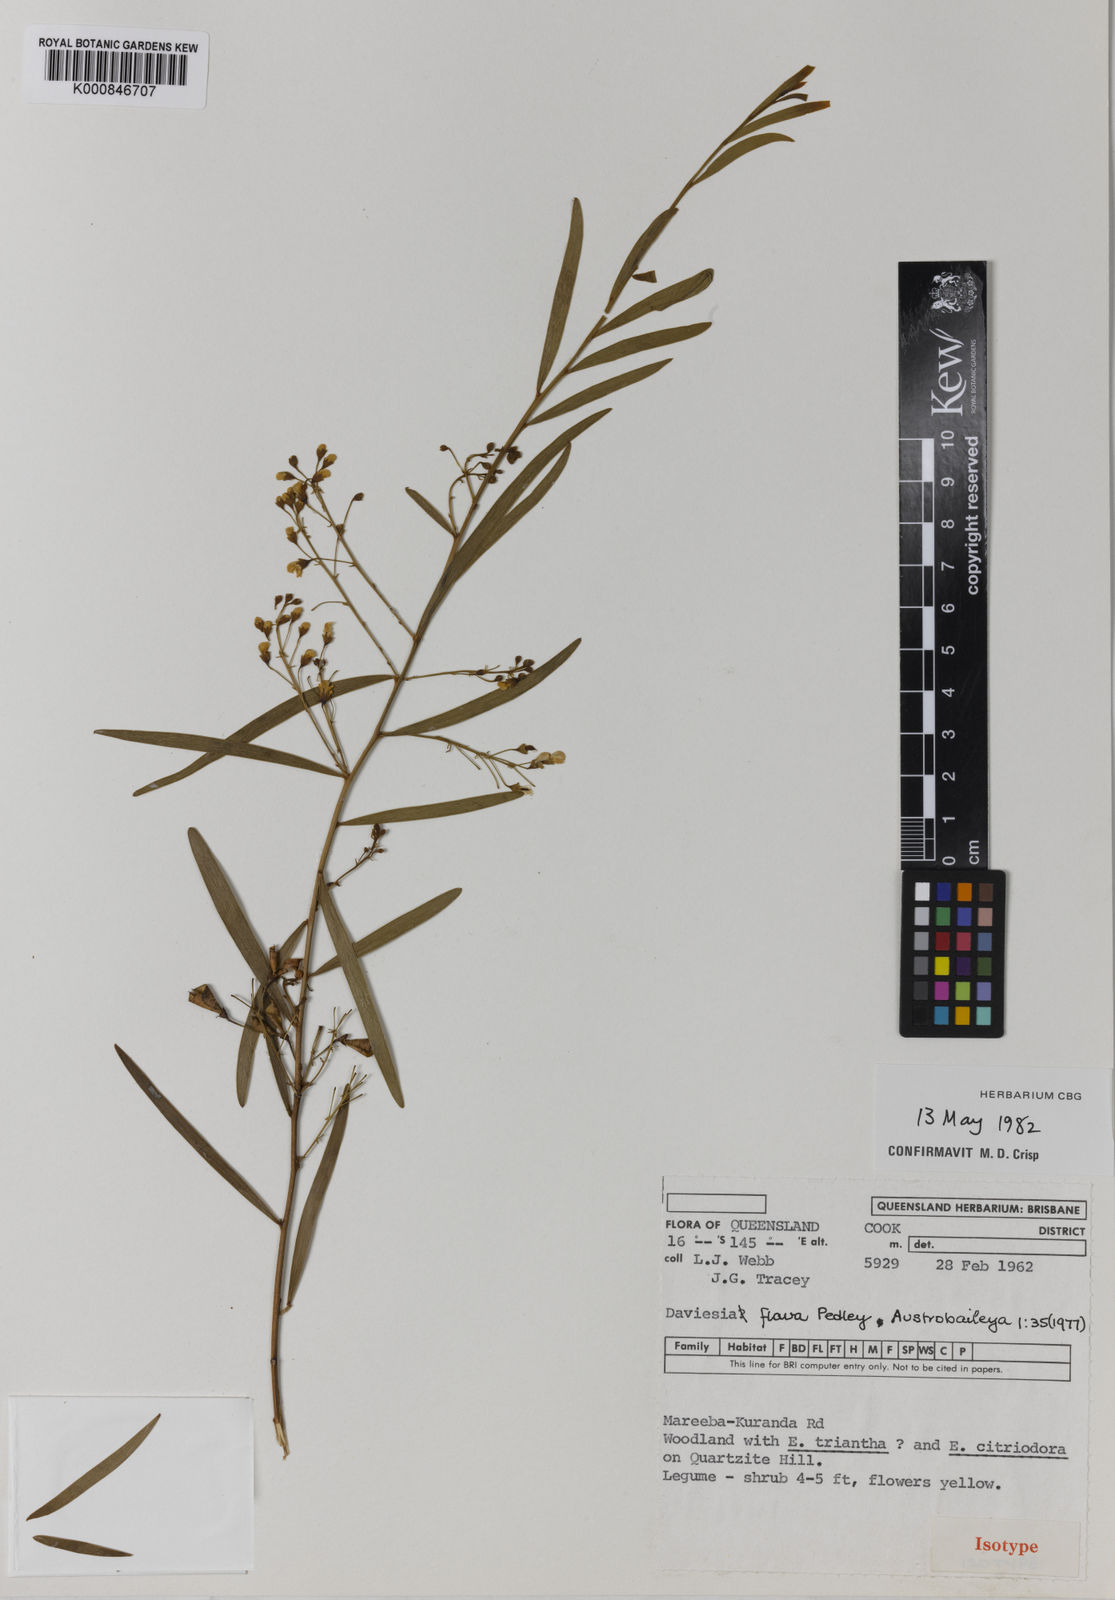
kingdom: Plantae
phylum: Tracheophyta
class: Magnoliopsida
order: Fabales
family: Fabaceae
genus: Daviesia
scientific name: Daviesia flava
